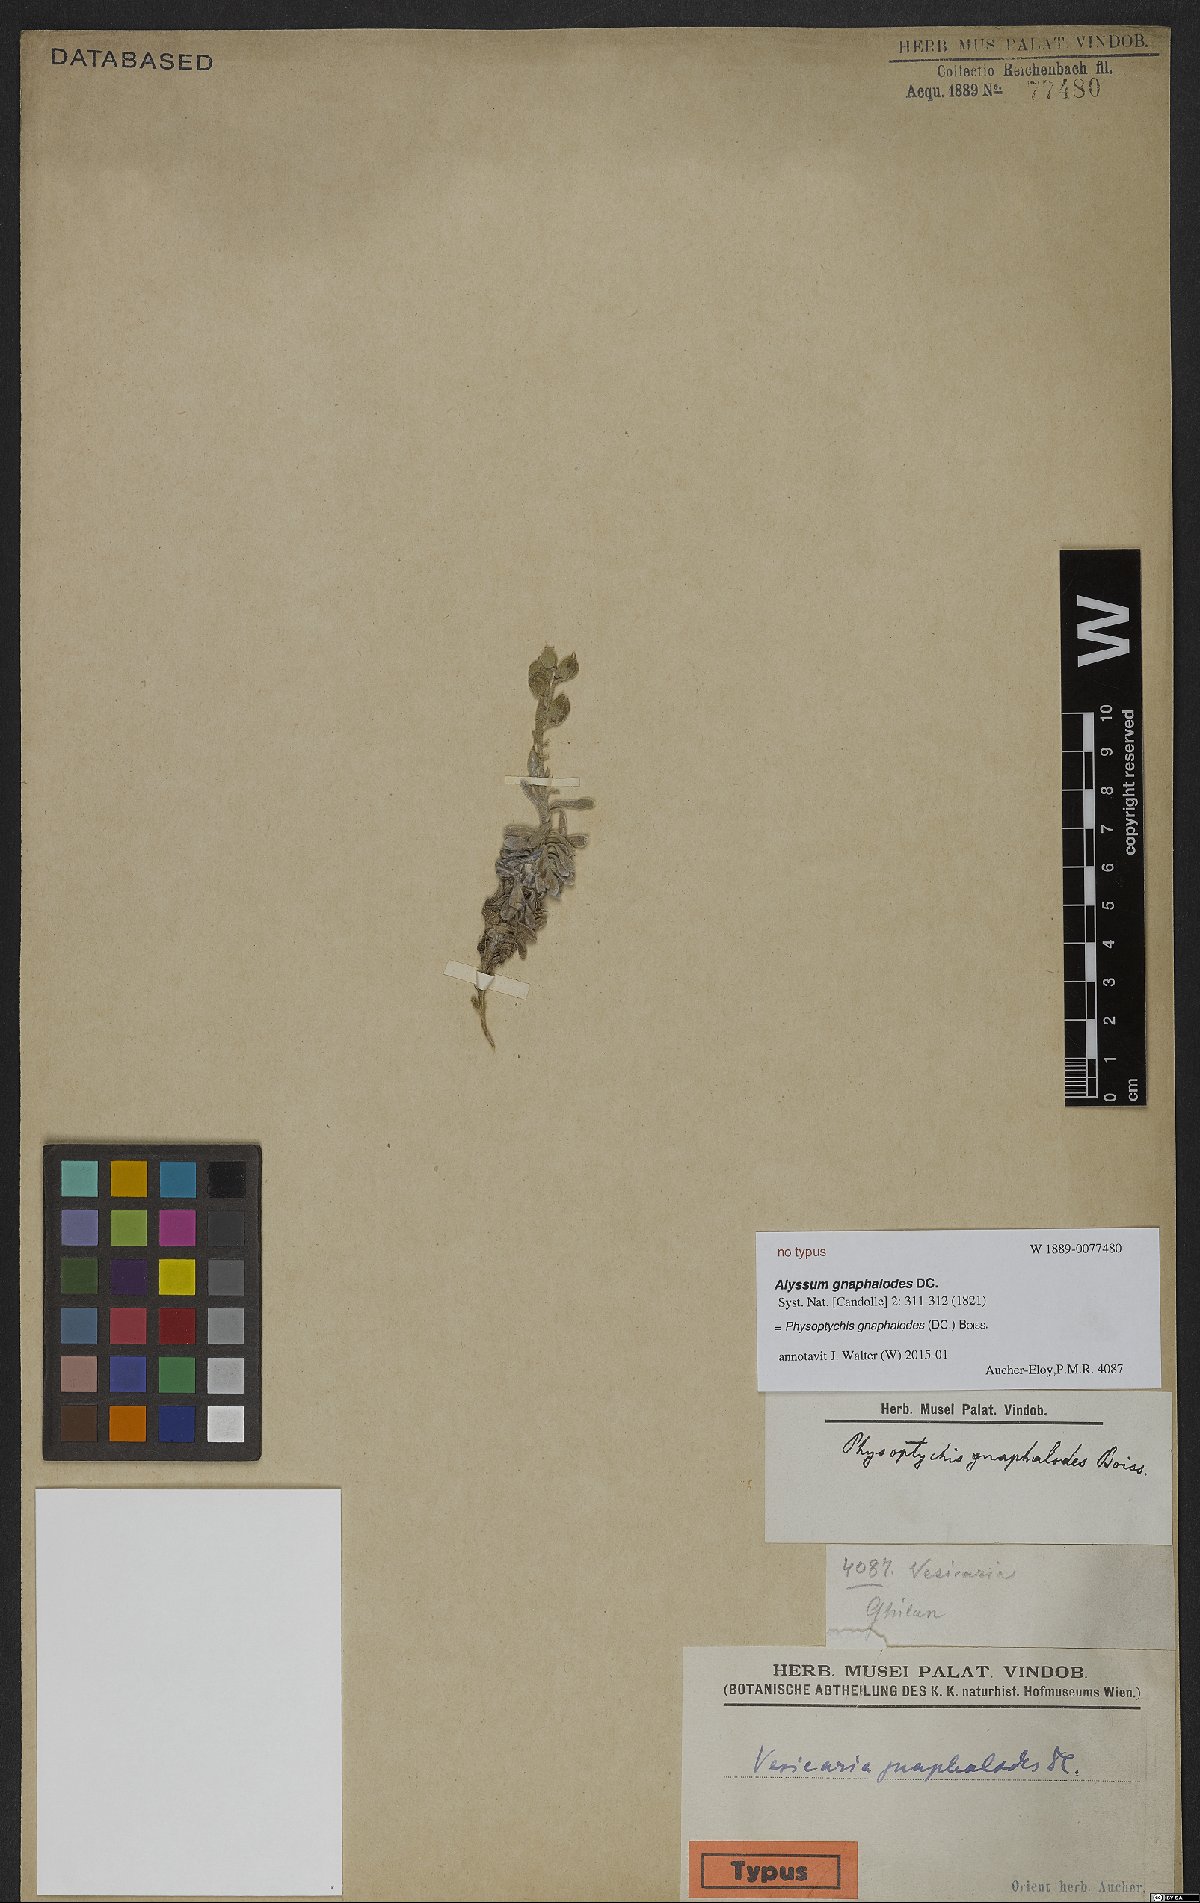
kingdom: Plantae
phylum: Tracheophyta
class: Magnoliopsida
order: Brassicales
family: Brassicaceae
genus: Physoptychis
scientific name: Physoptychis caspica
